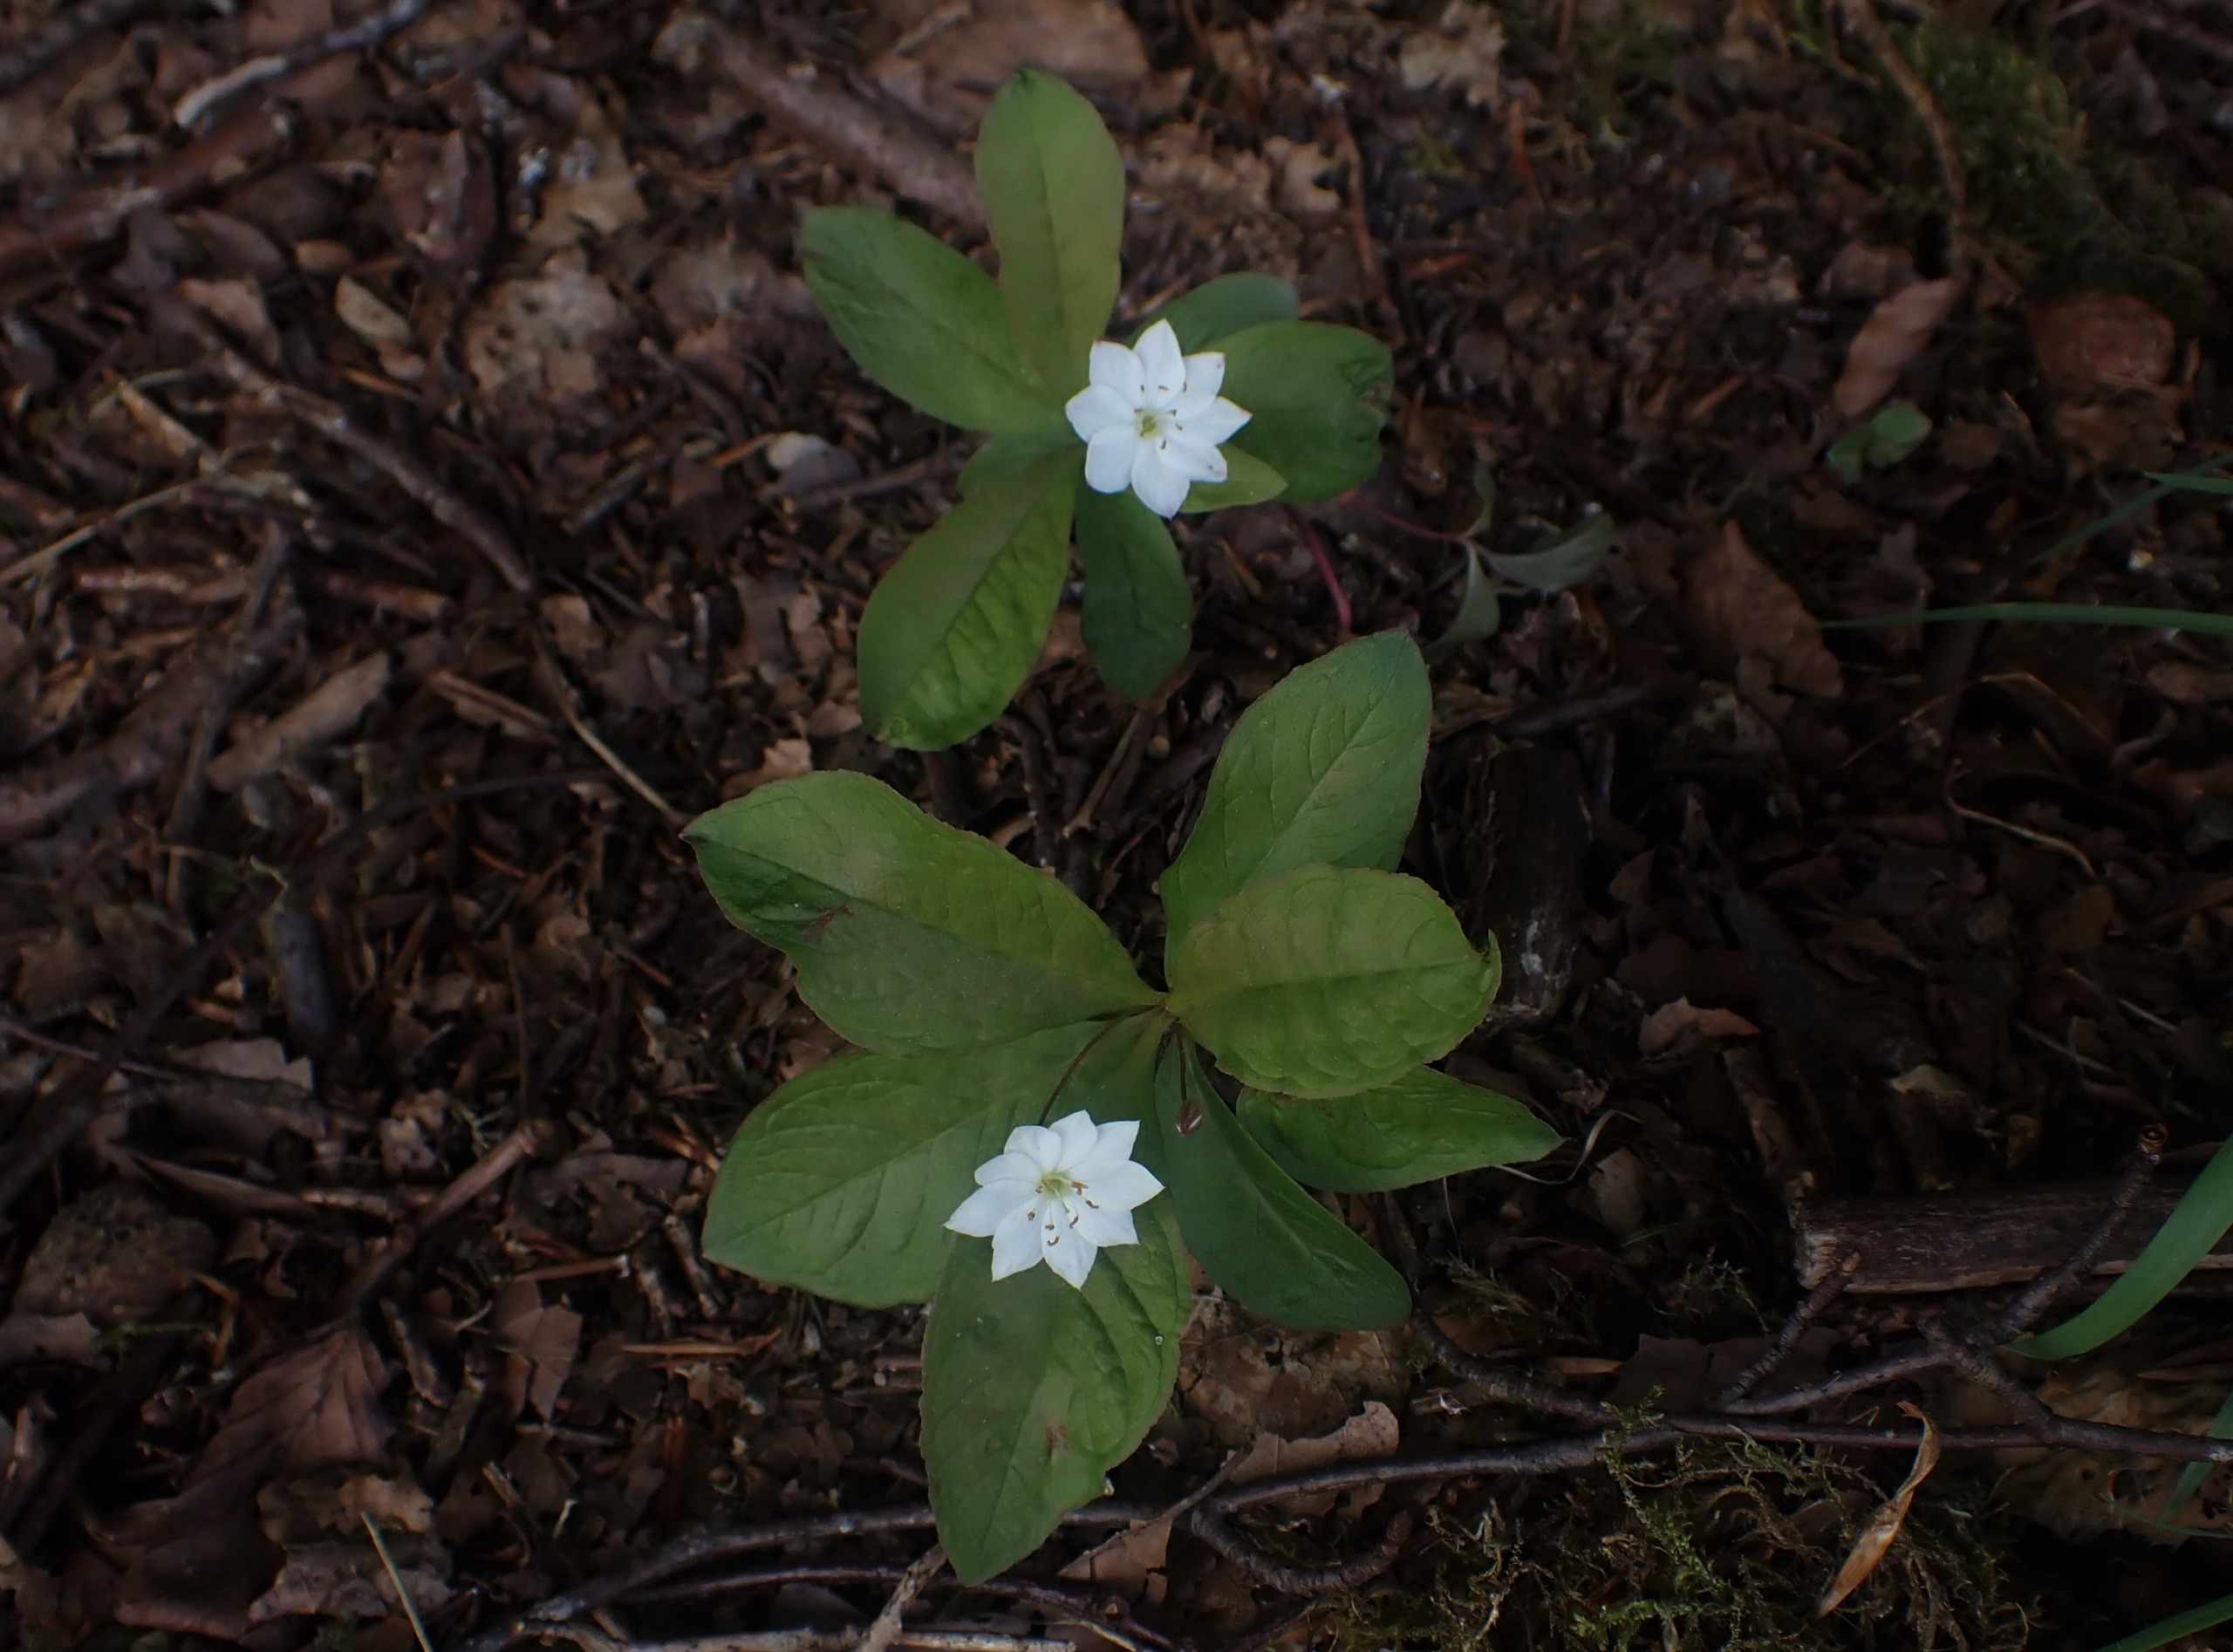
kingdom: Plantae
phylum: Tracheophyta
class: Magnoliopsida
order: Ericales
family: Primulaceae
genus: Lysimachia
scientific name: Lysimachia europaea
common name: Skovstjerne
